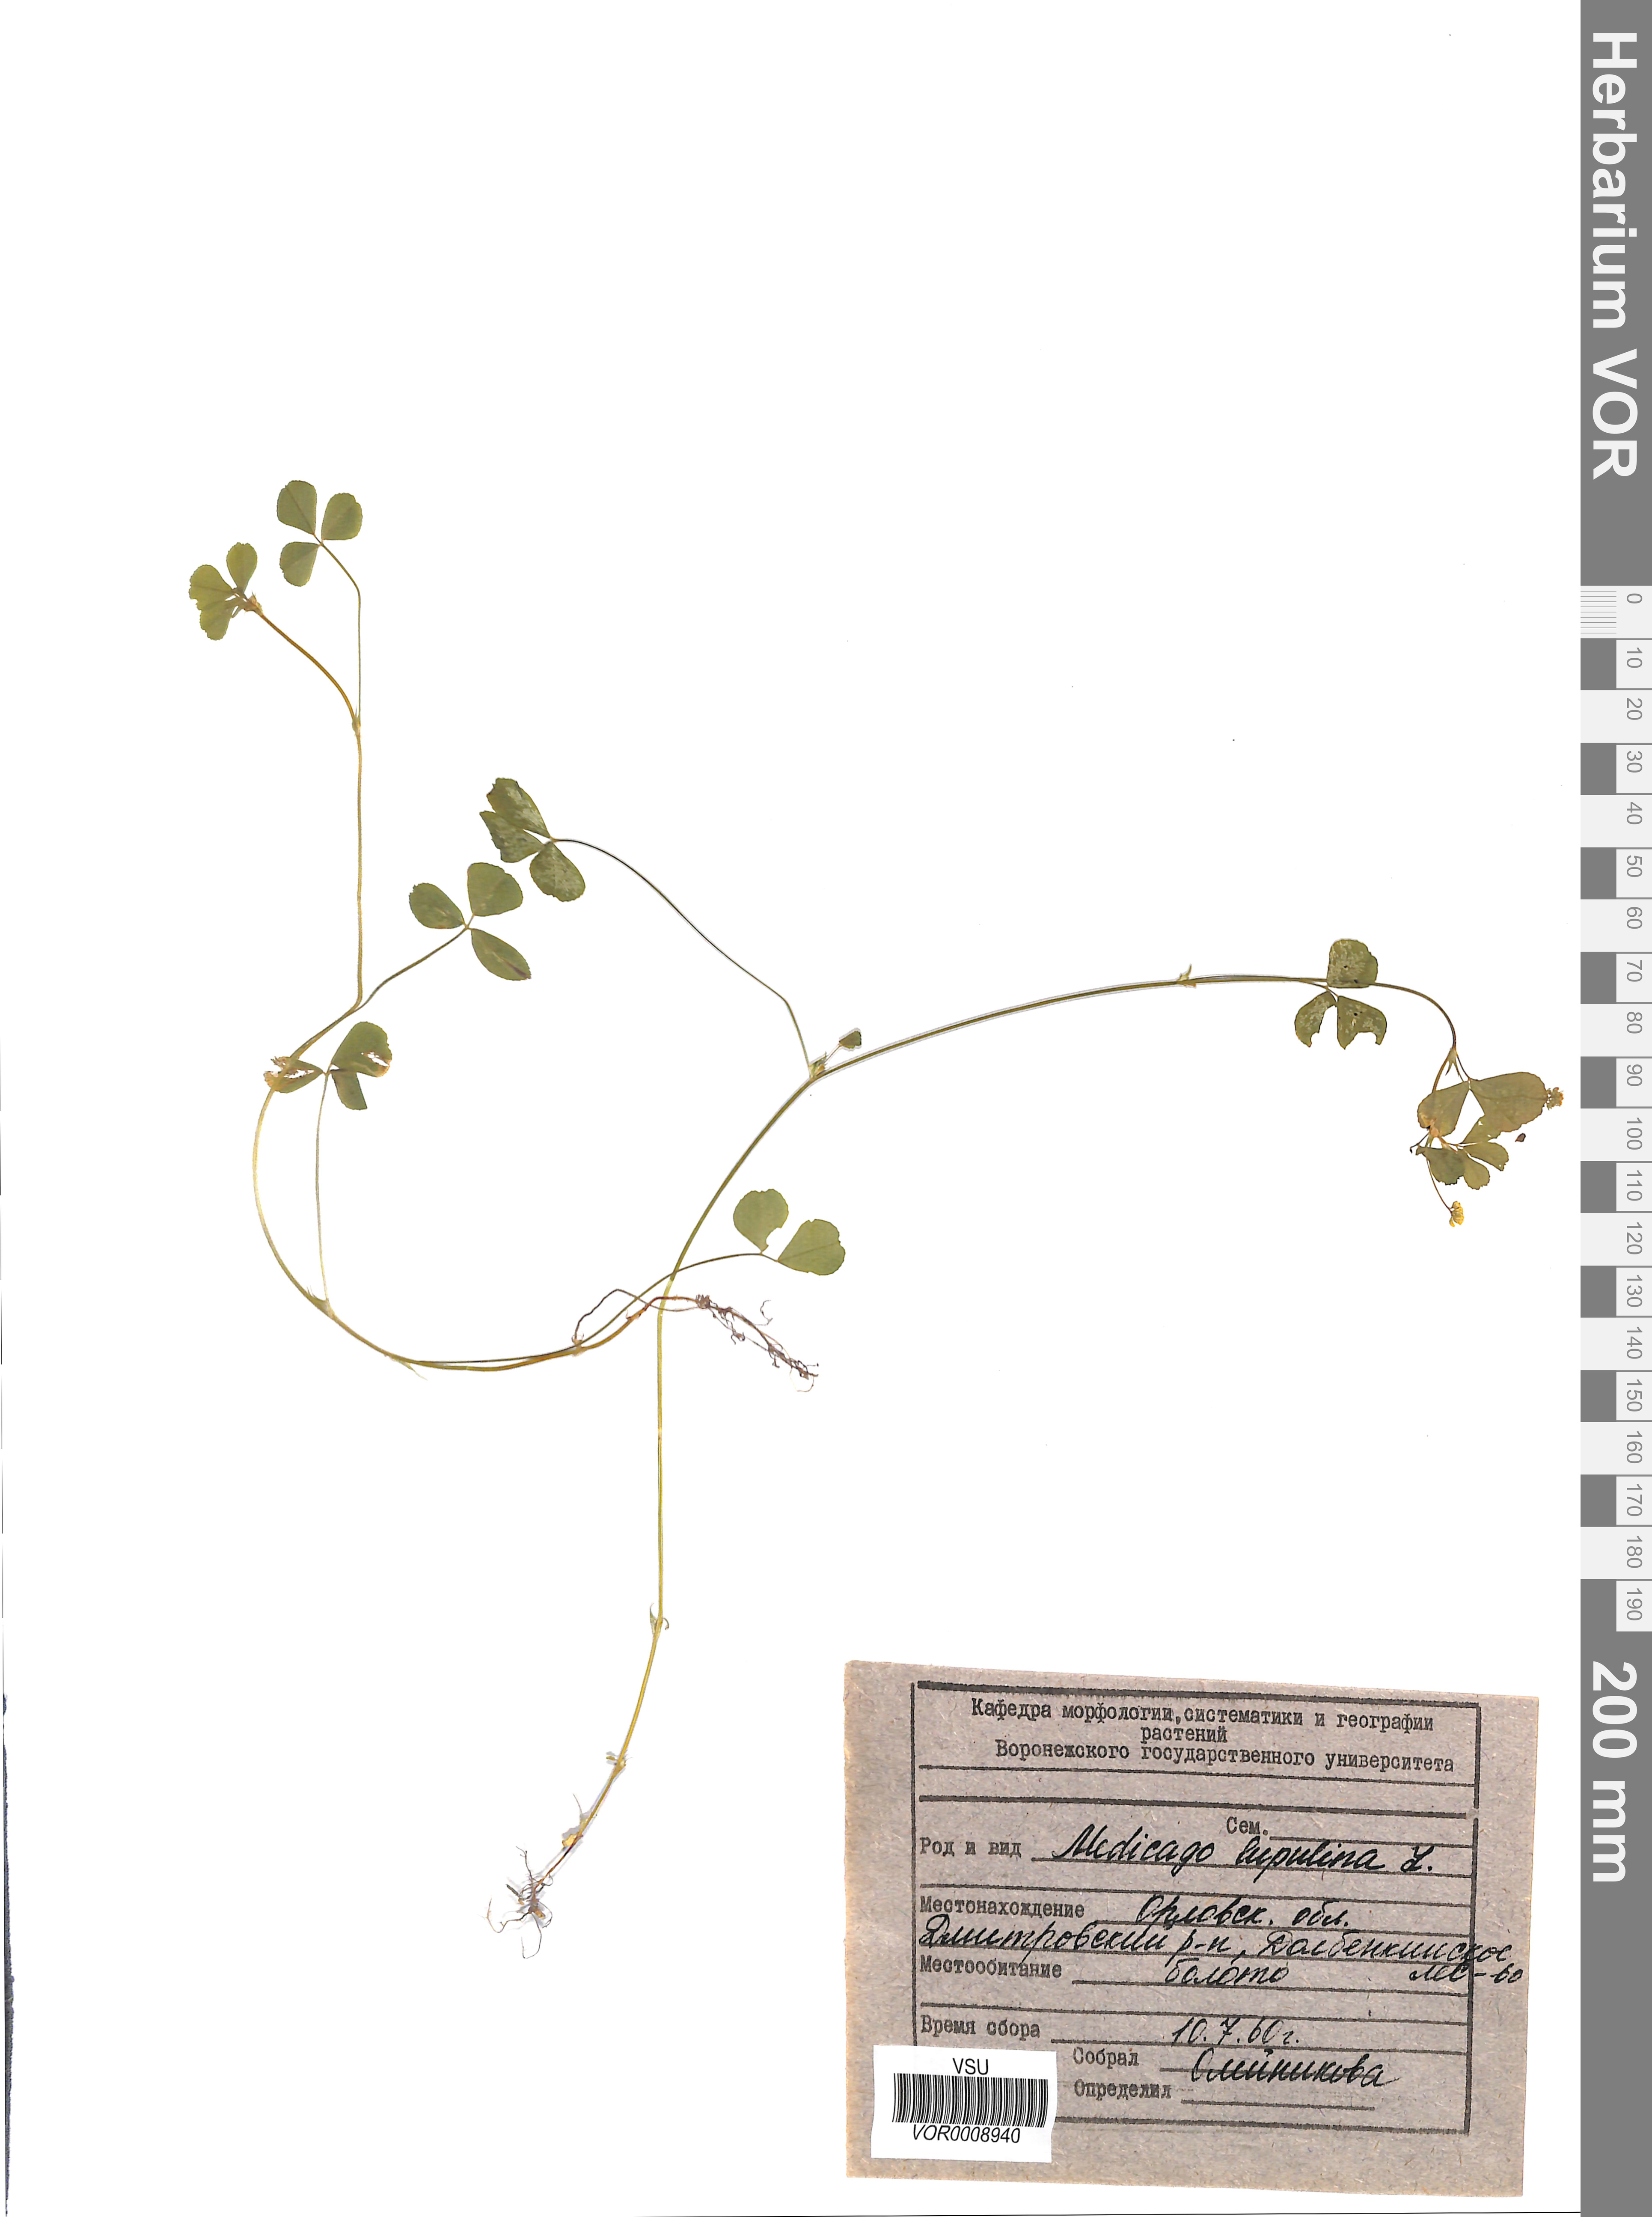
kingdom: Plantae
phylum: Tracheophyta
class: Magnoliopsida
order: Fabales
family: Fabaceae
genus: Medicago
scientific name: Medicago lupulina
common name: Black medick
